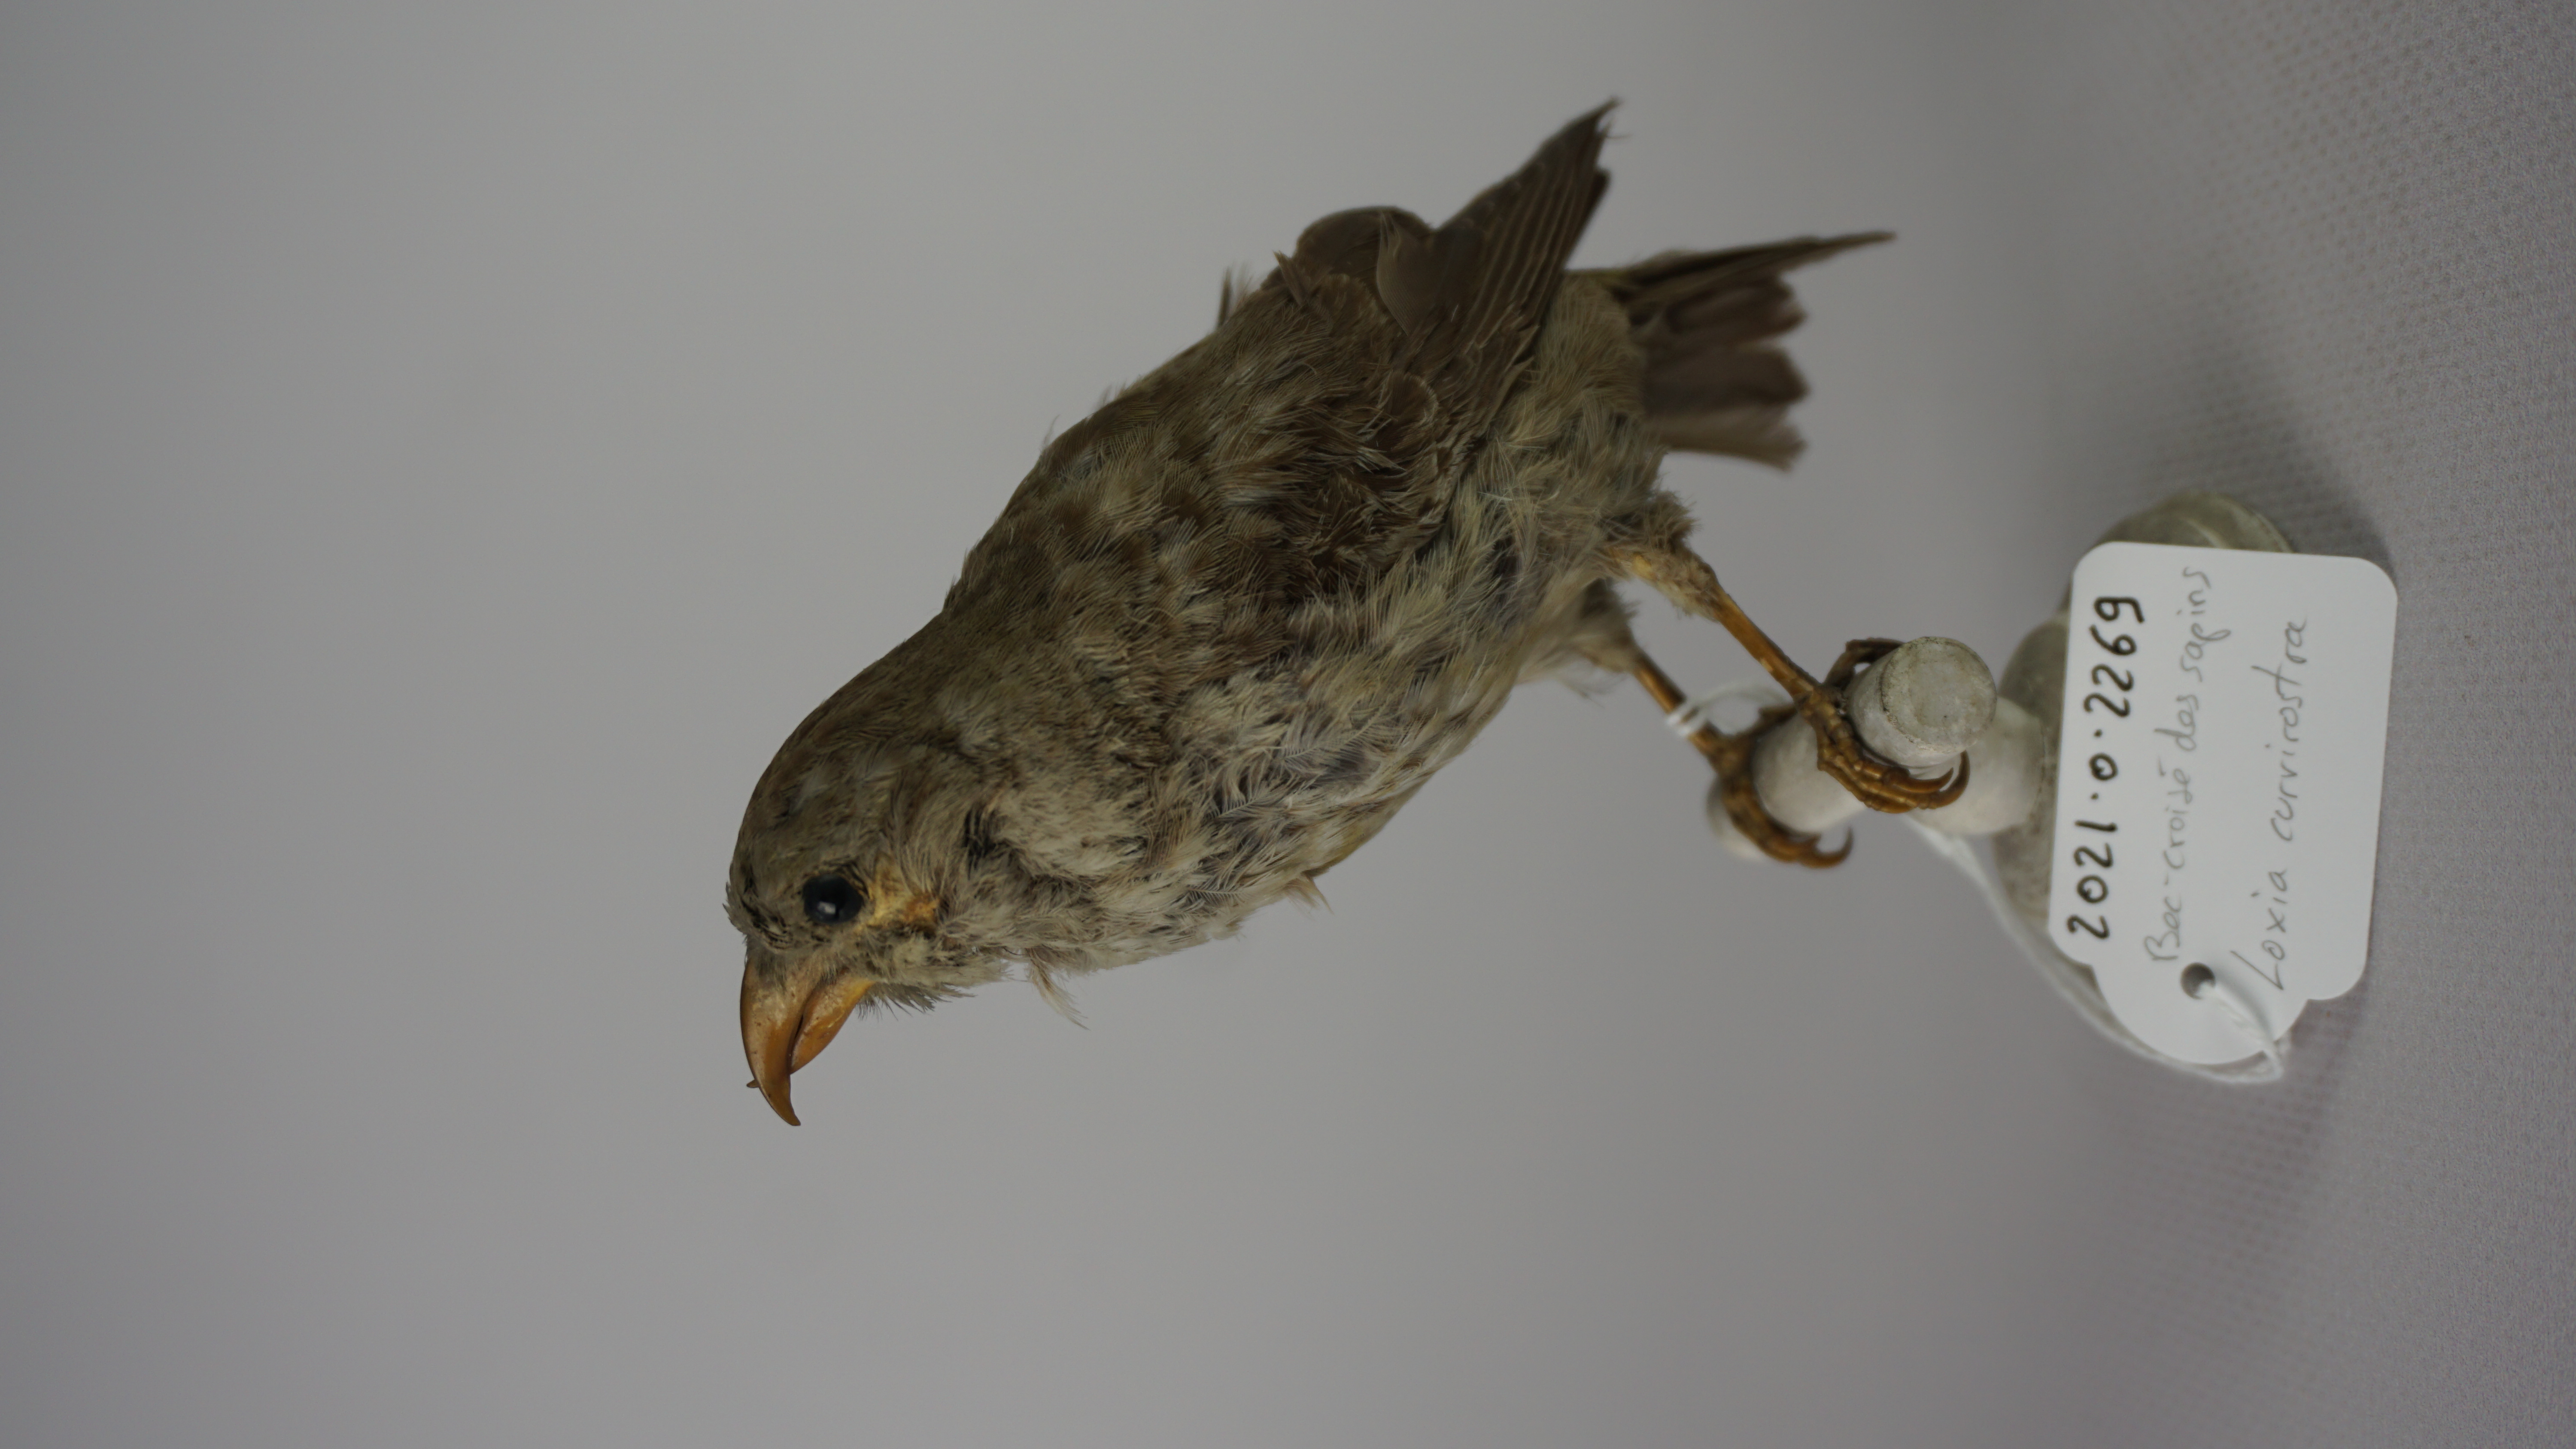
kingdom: Animalia
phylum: Chordata
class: Aves
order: Passeriformes
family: Fringillidae
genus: Loxia
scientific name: Loxia curvirostra
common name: Red crossbill
